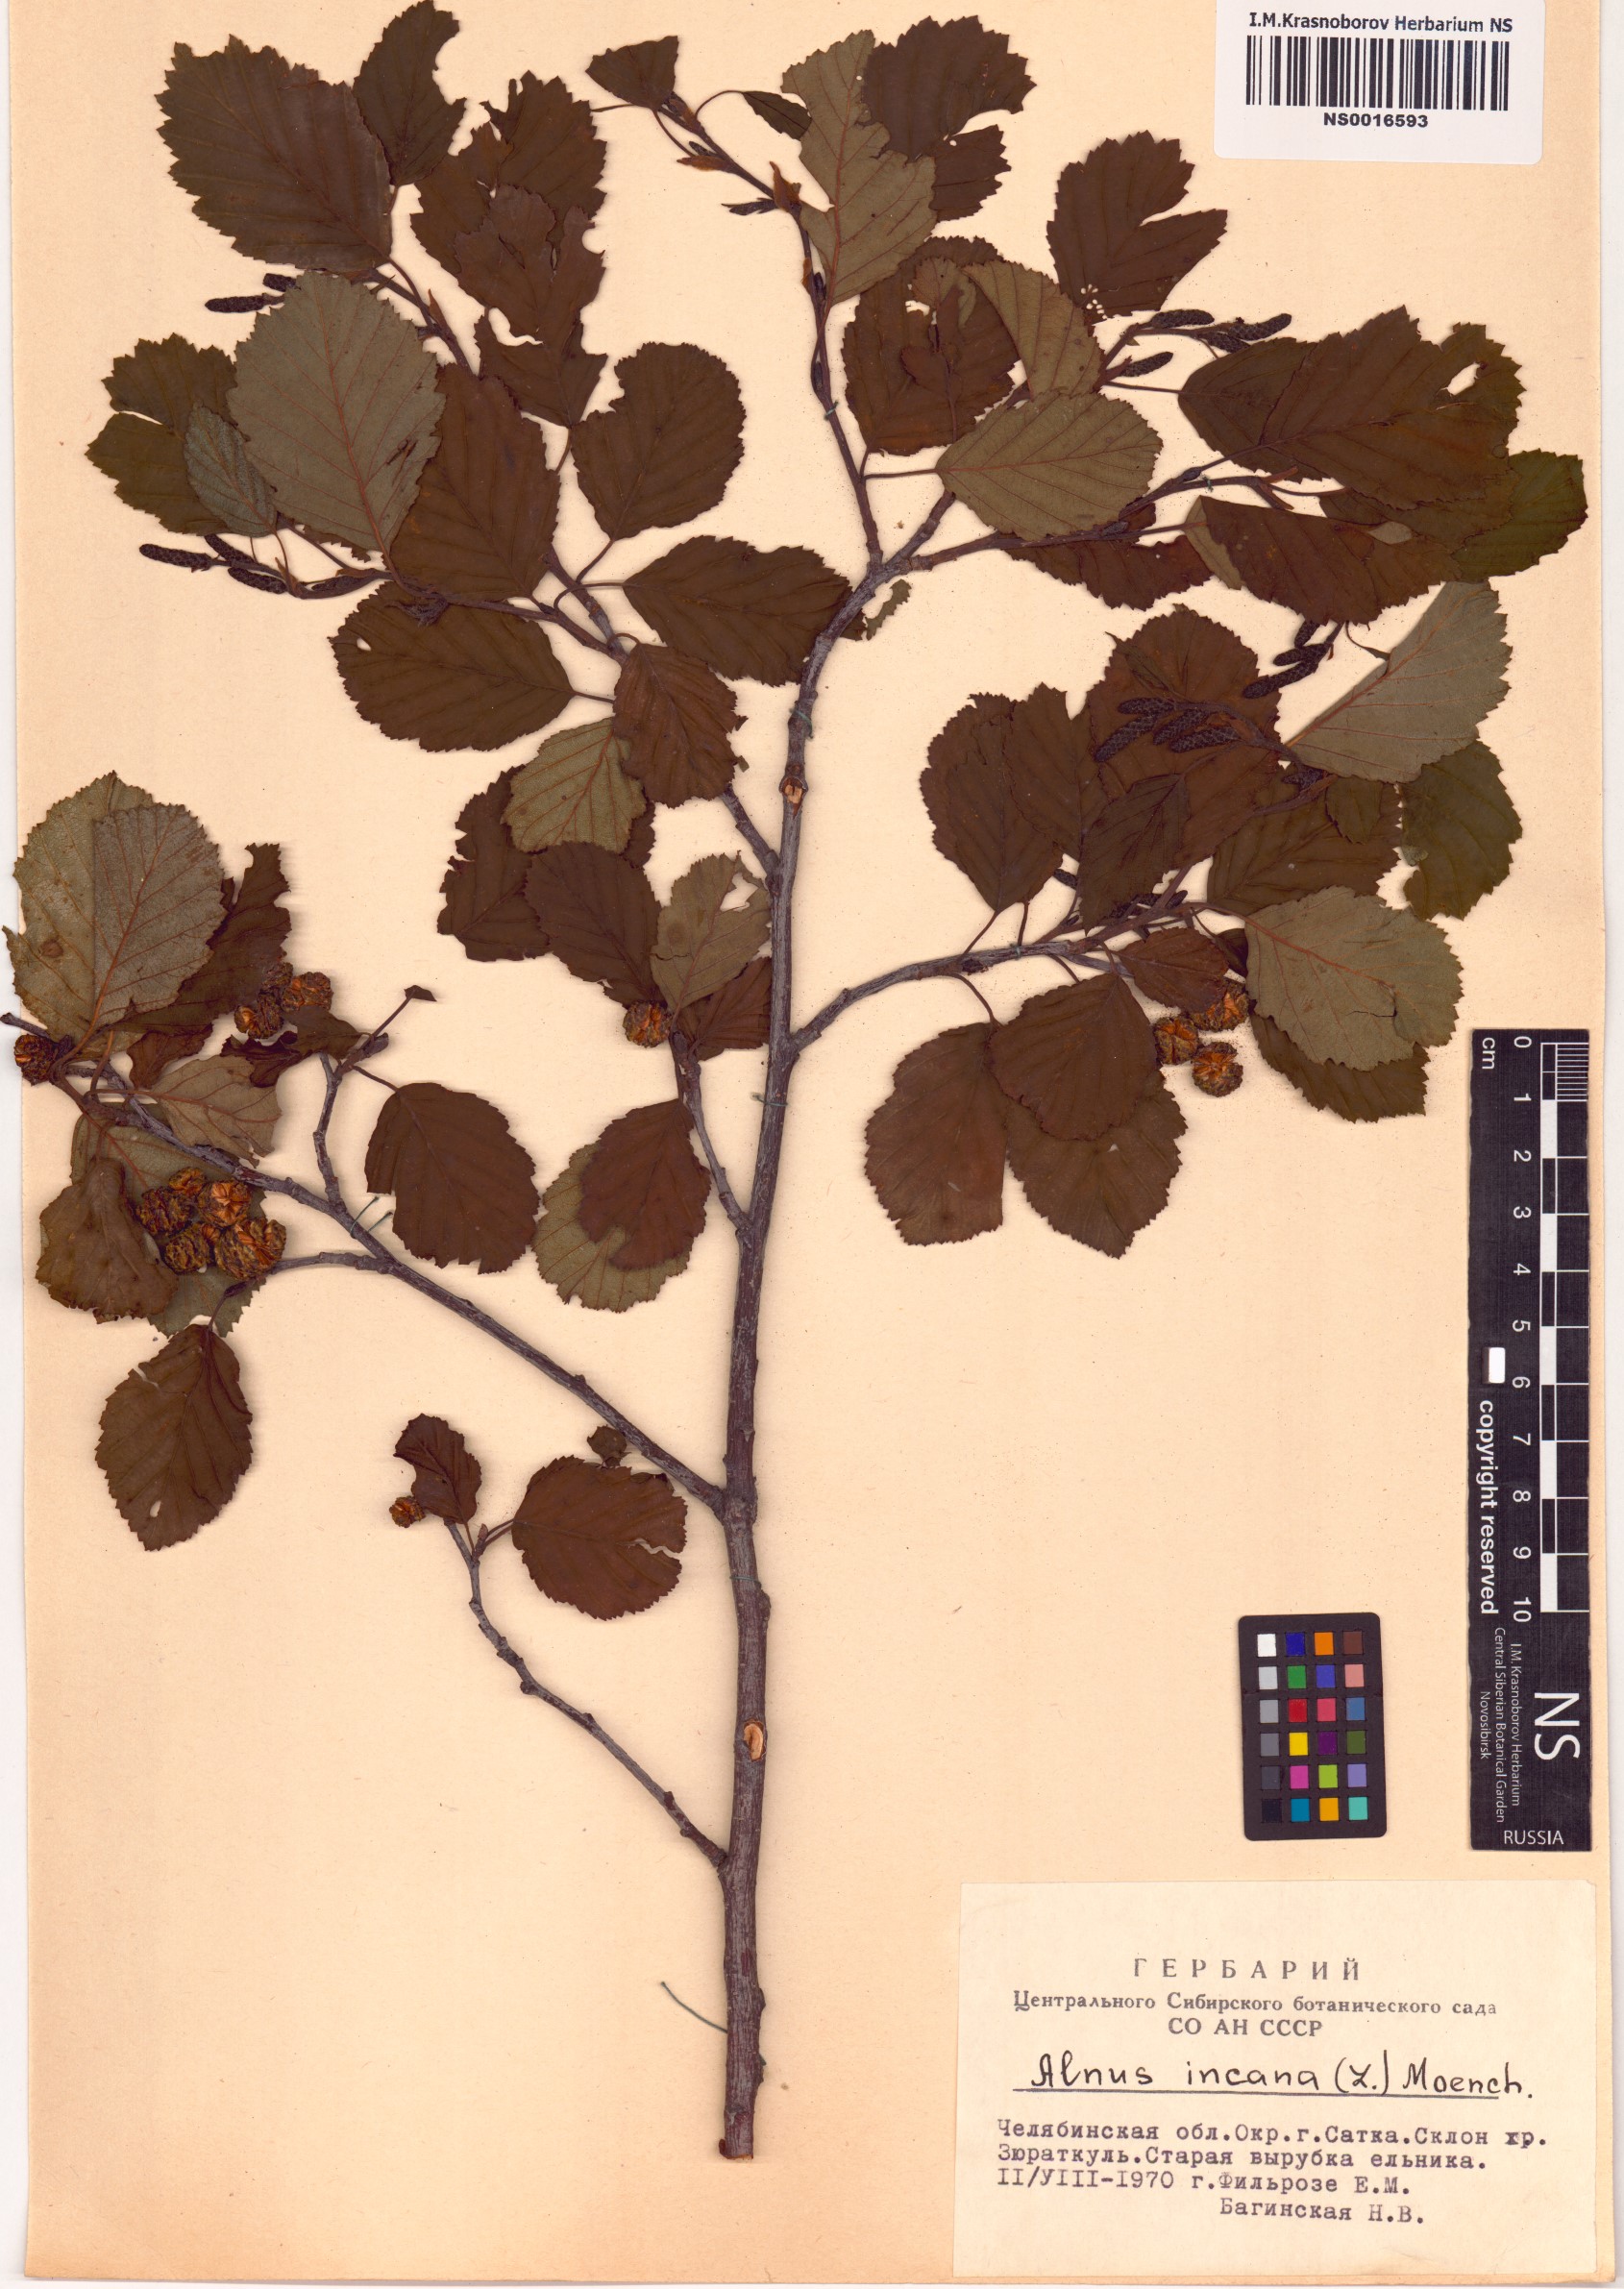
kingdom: Plantae
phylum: Tracheophyta
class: Magnoliopsida
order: Fagales
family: Betulaceae
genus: Alnus
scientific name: Alnus incana
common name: Grey alder
